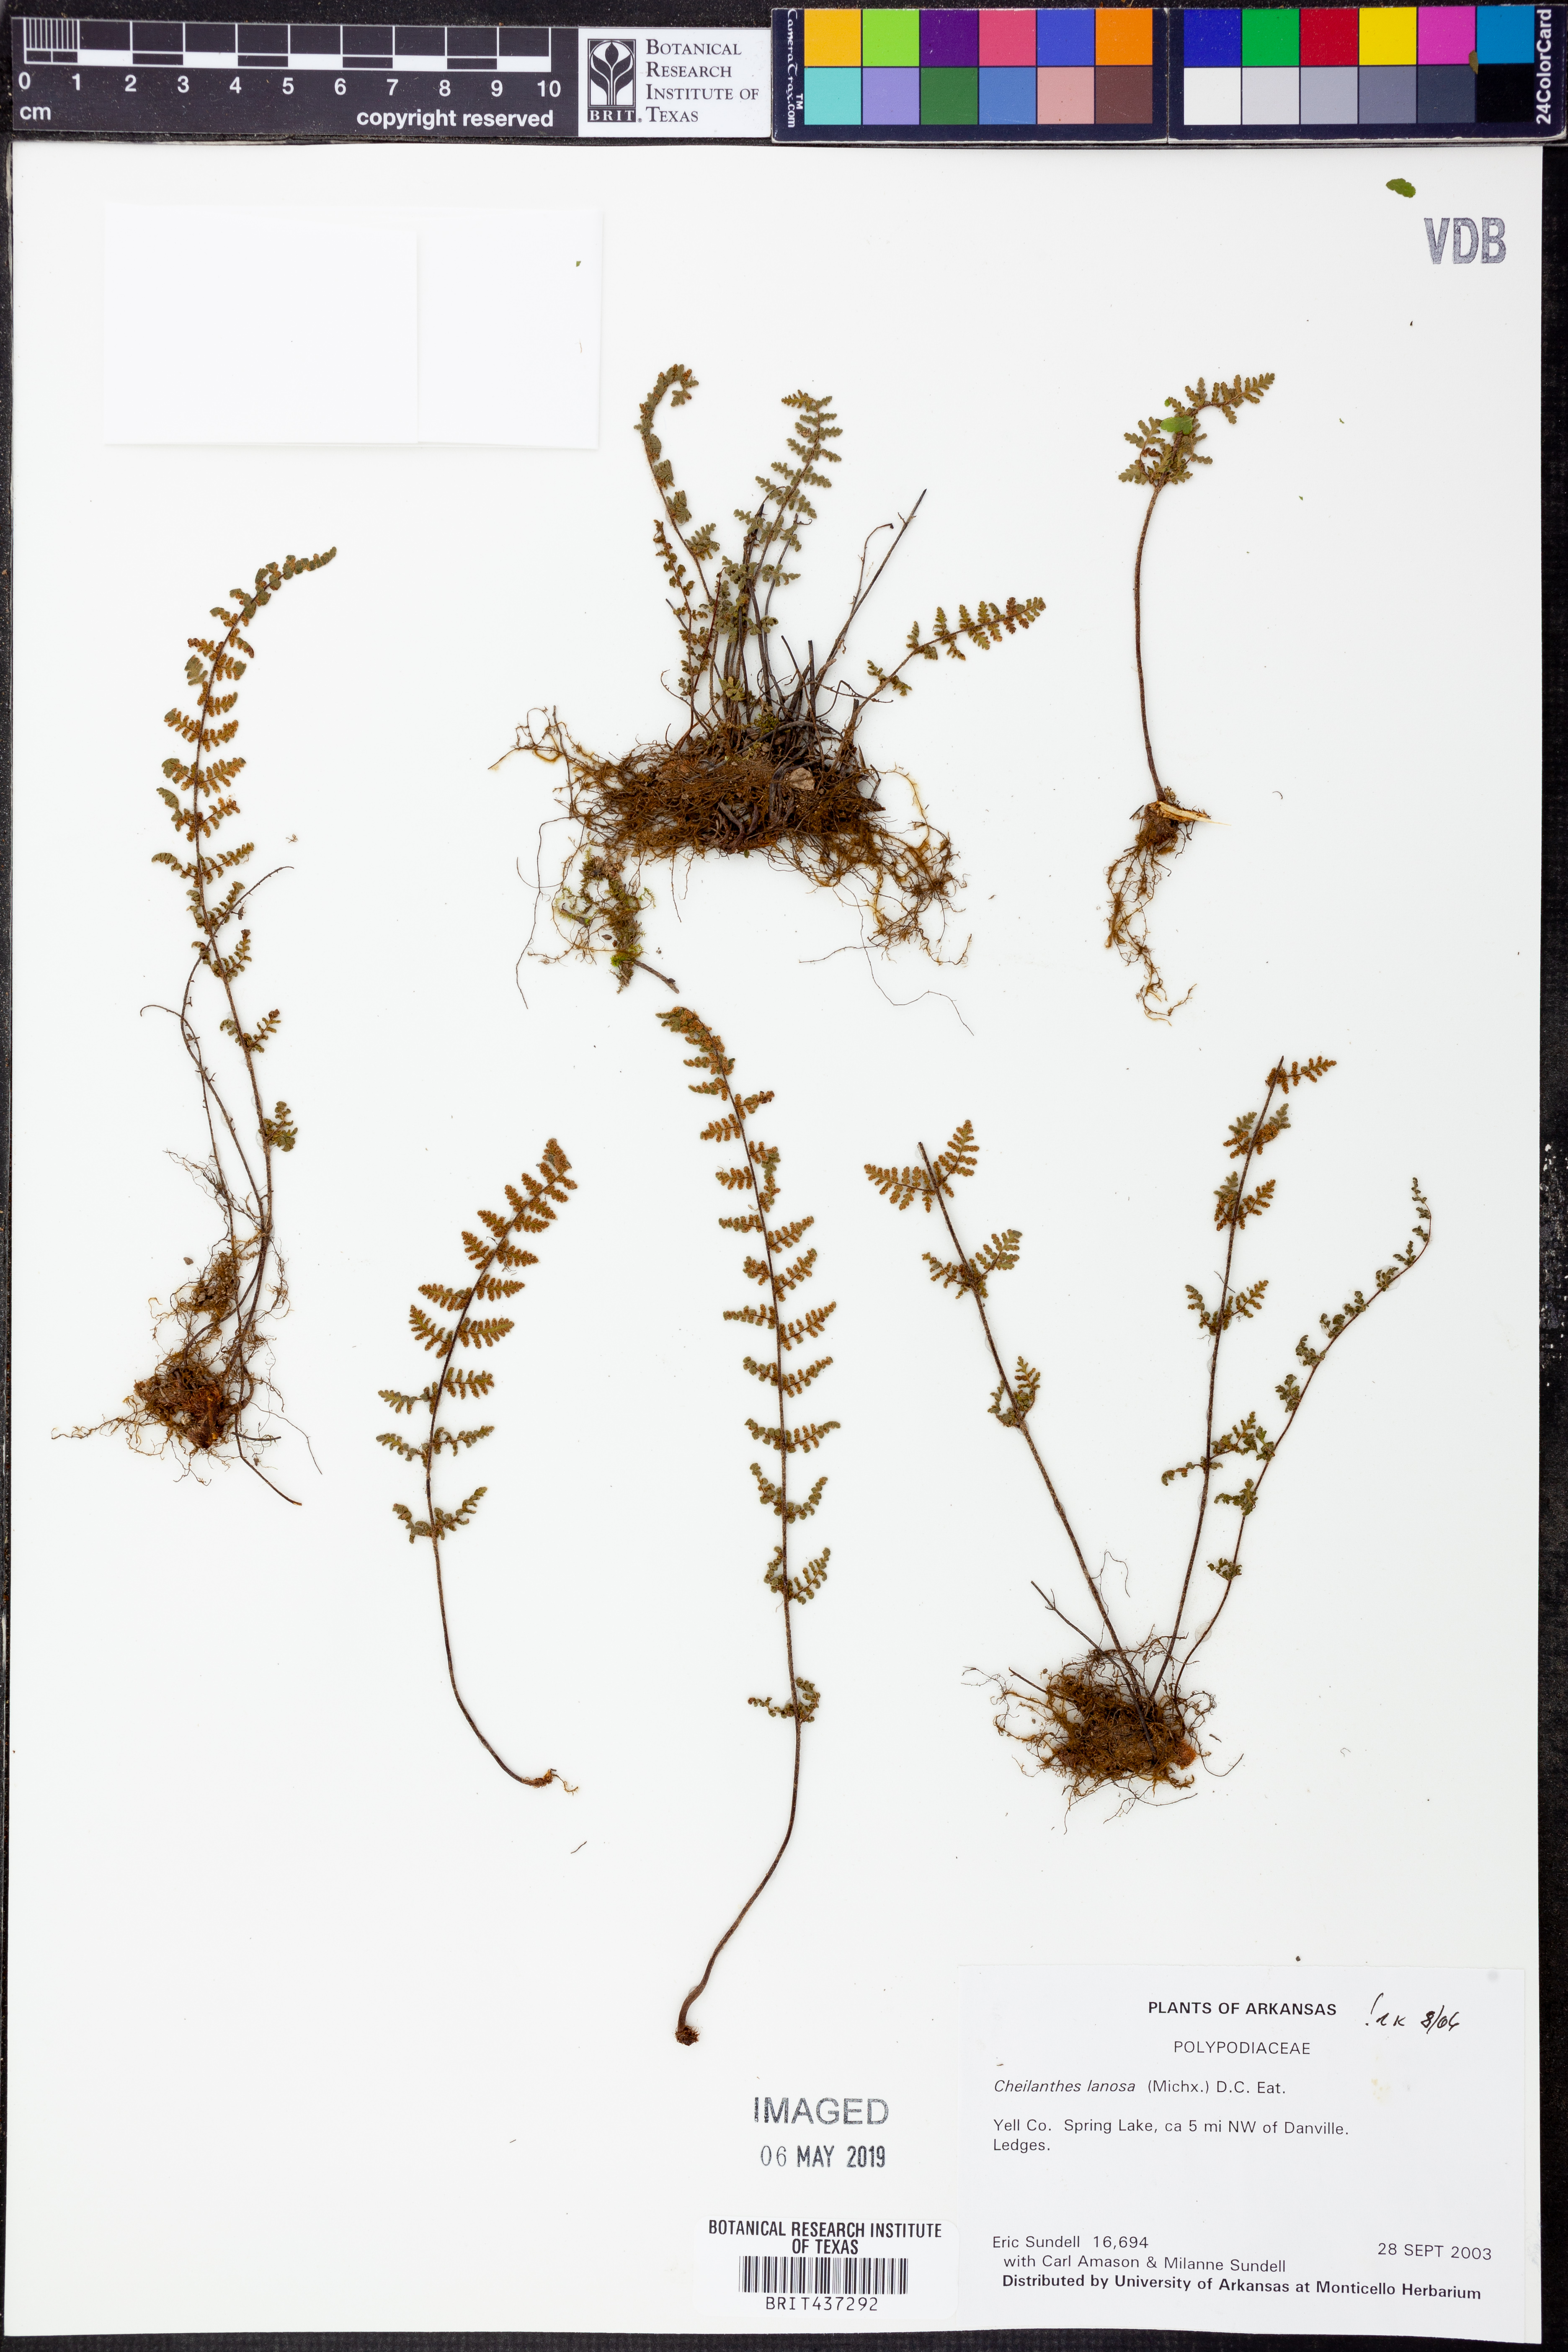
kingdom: Plantae
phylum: Tracheophyta
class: Polypodiopsida
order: Polypodiales
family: Pteridaceae
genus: Myriopteris
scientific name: Myriopteris lanosa
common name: Hairy lip fern
